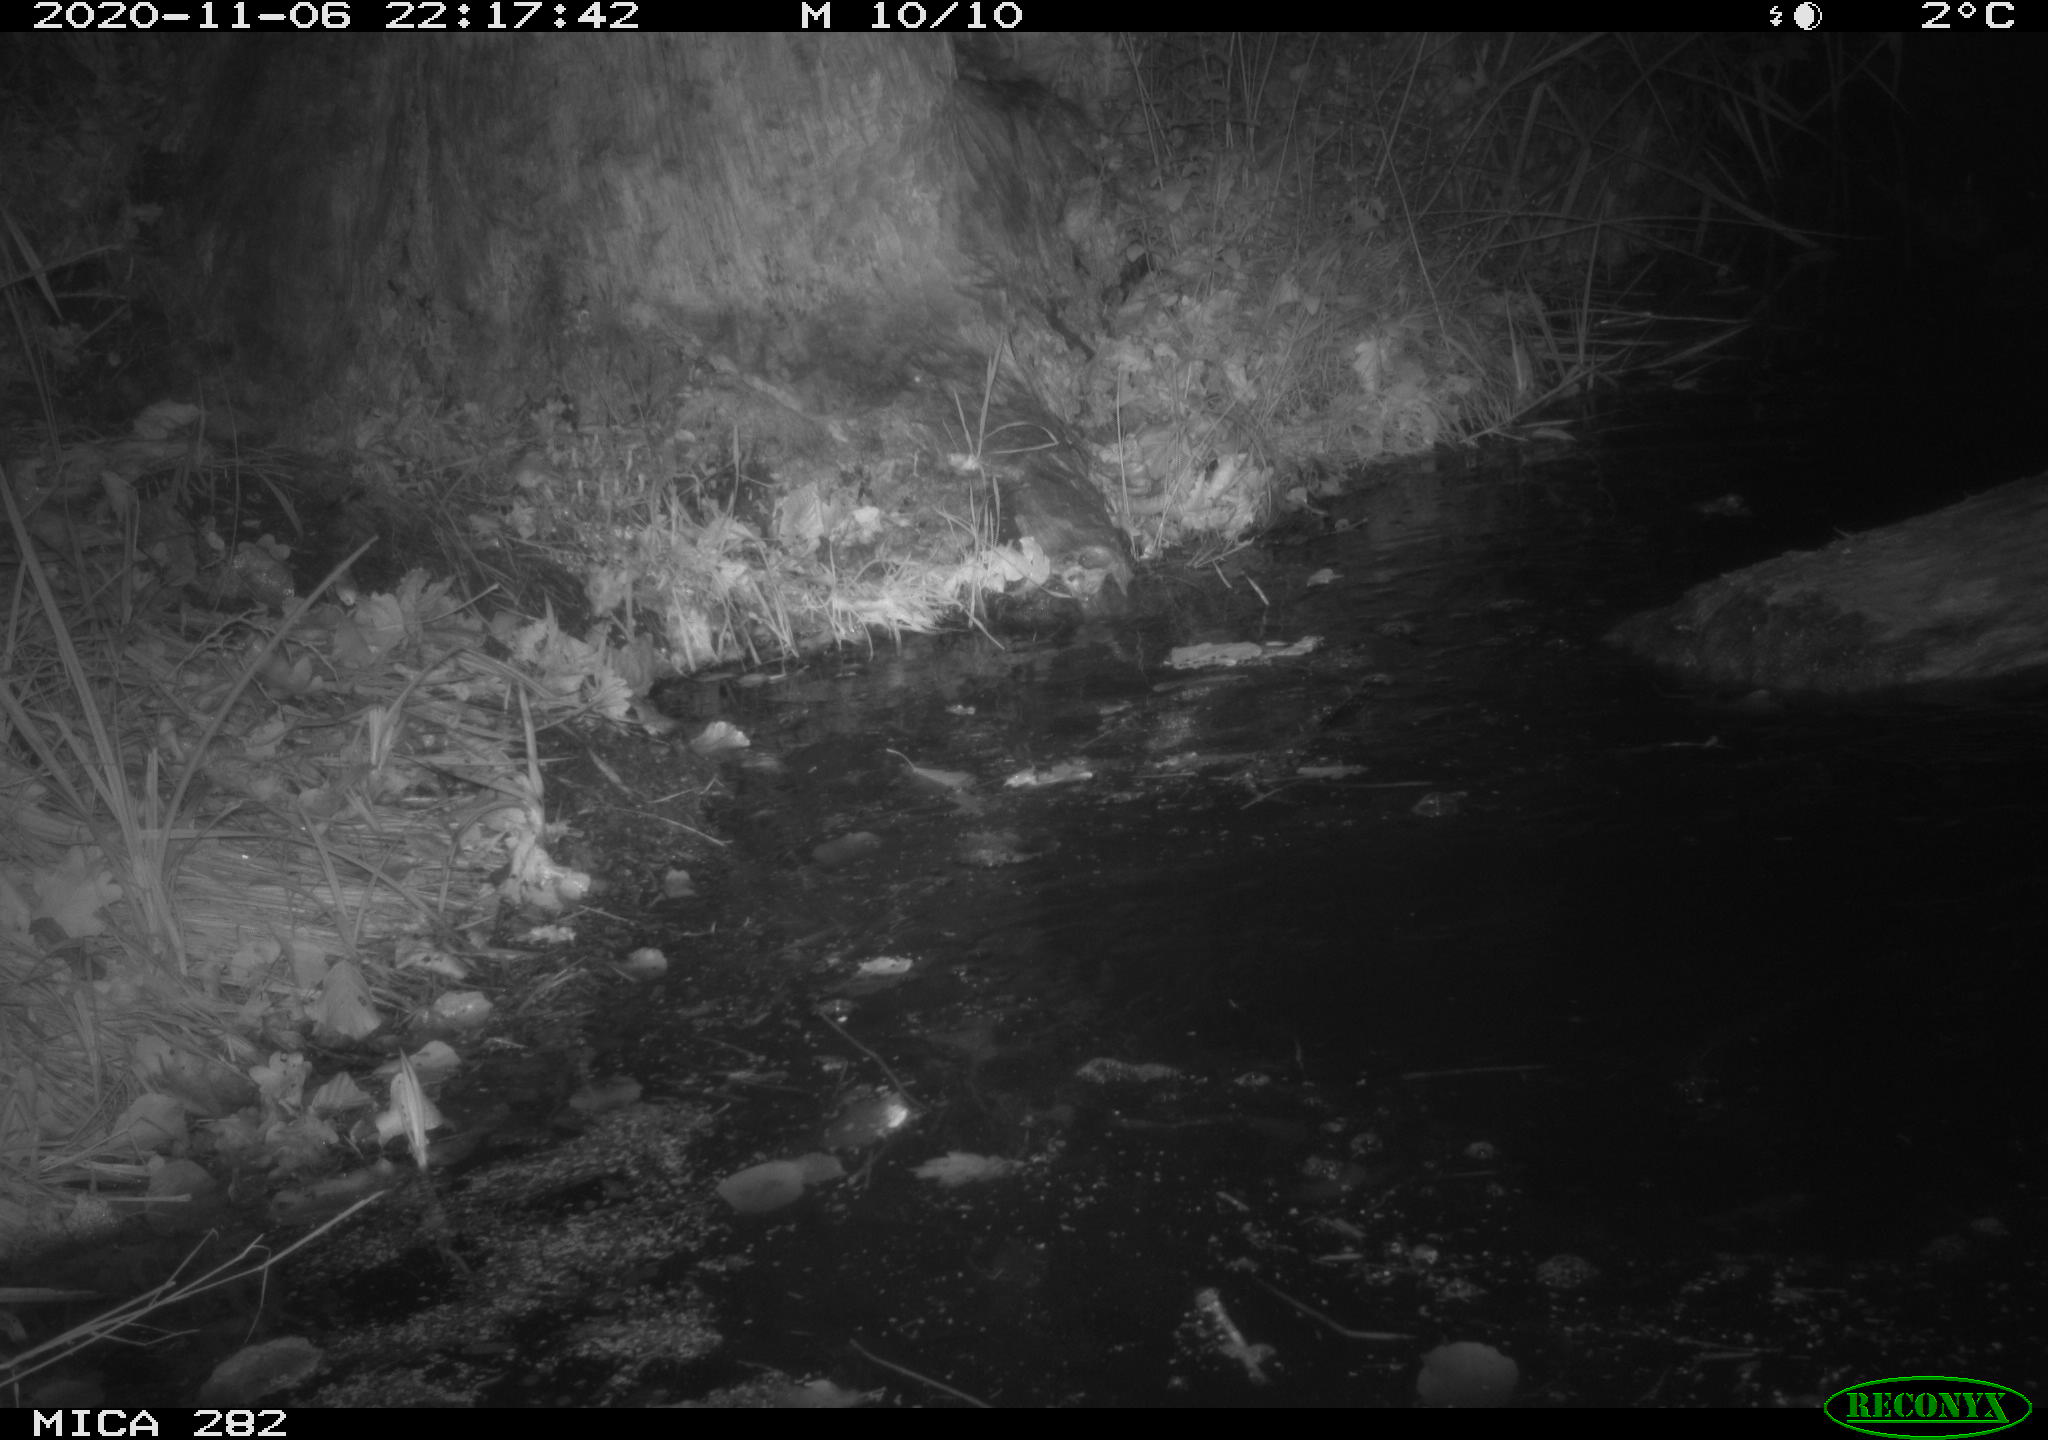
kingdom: Animalia
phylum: Chordata
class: Mammalia
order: Rodentia
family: Castoridae
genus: Castor
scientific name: Castor fiber
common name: Eurasian beaver
